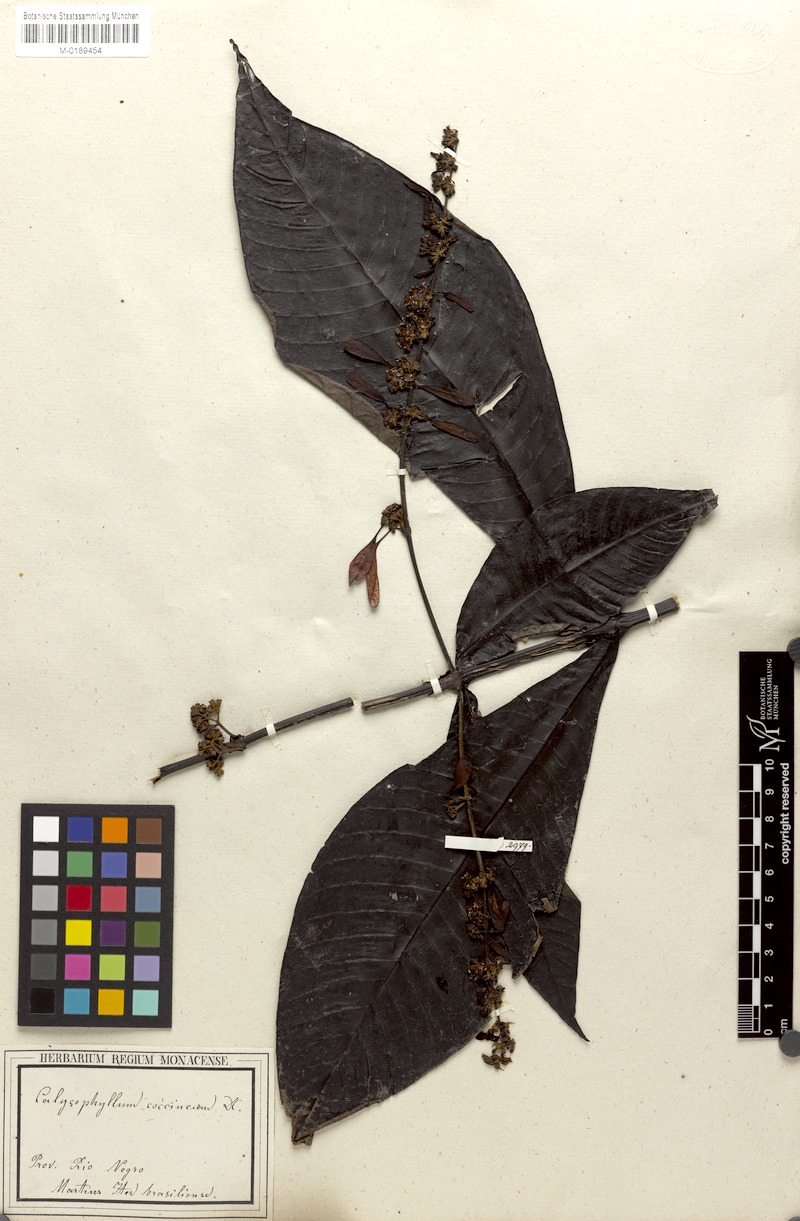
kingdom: Plantae
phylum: Tracheophyta
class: Magnoliopsida
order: Gentianales
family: Rubiaceae
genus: Warszewiczia
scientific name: Warszewiczia coccinea
